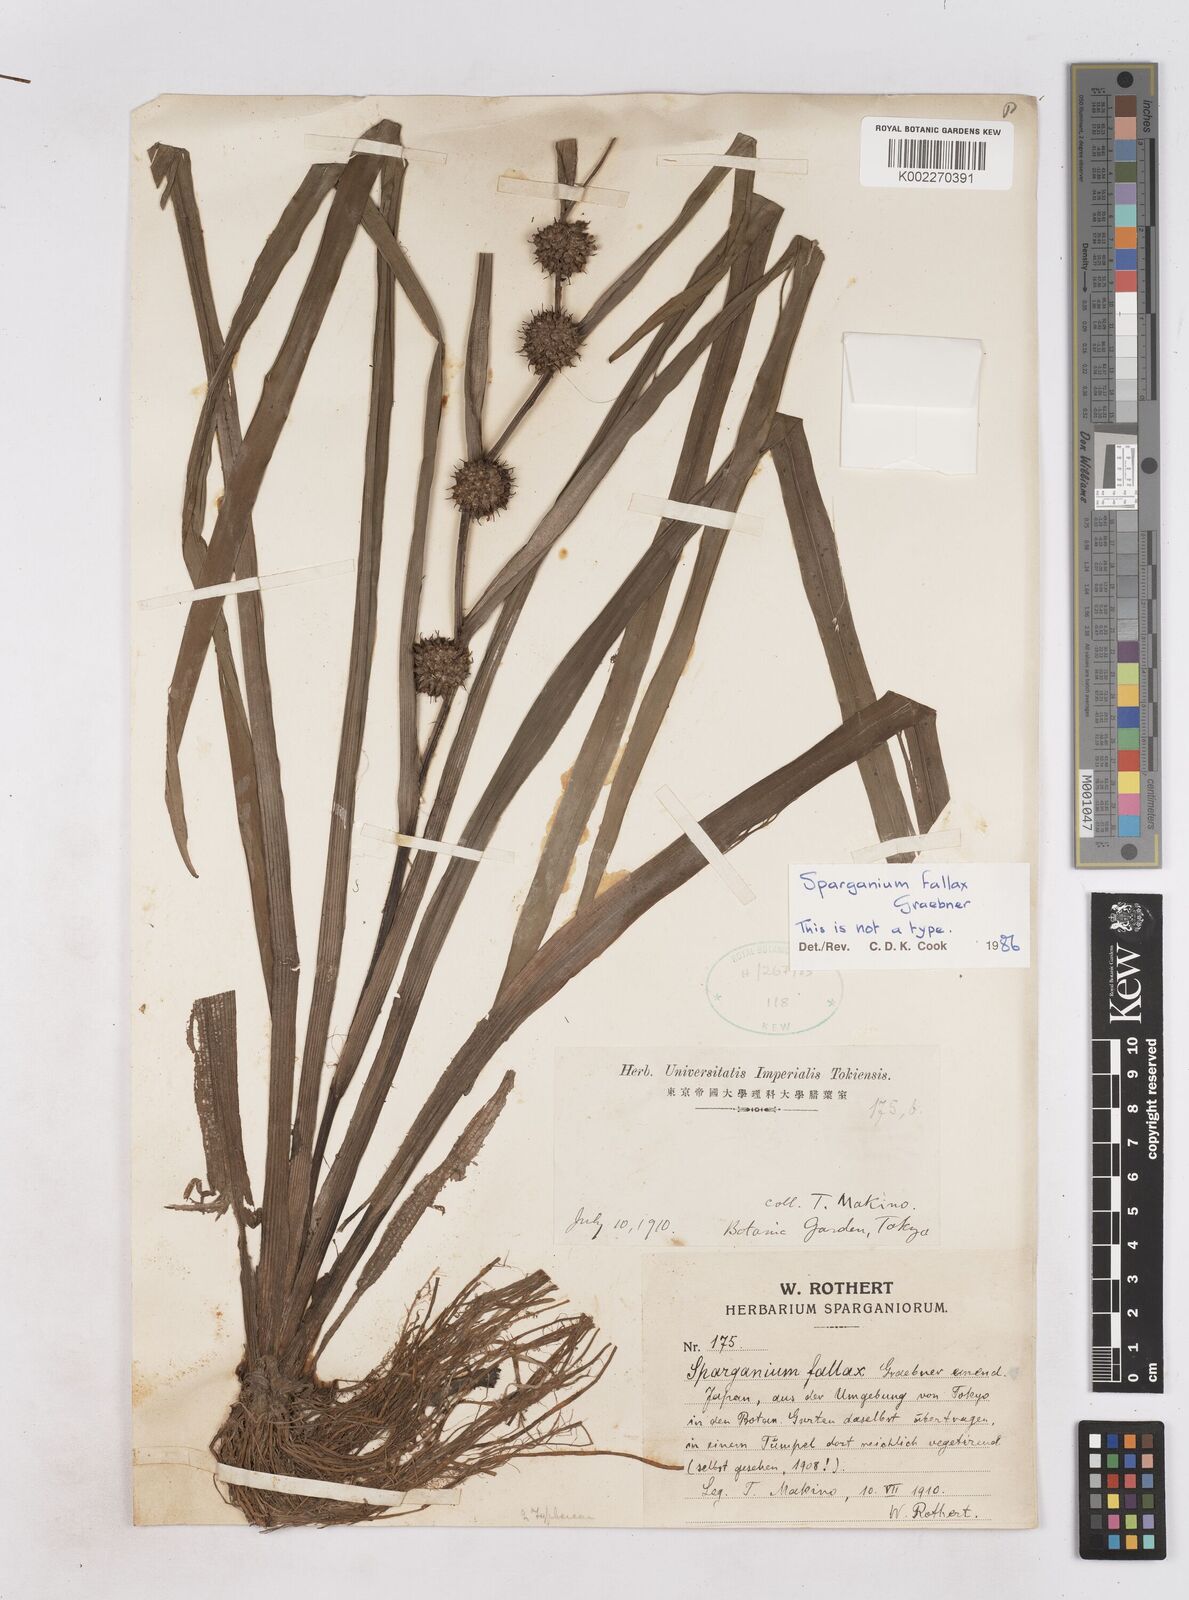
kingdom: Plantae
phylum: Tracheophyta
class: Liliopsida
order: Poales
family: Typhaceae
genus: Sparganium
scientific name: Sparganium fallax
